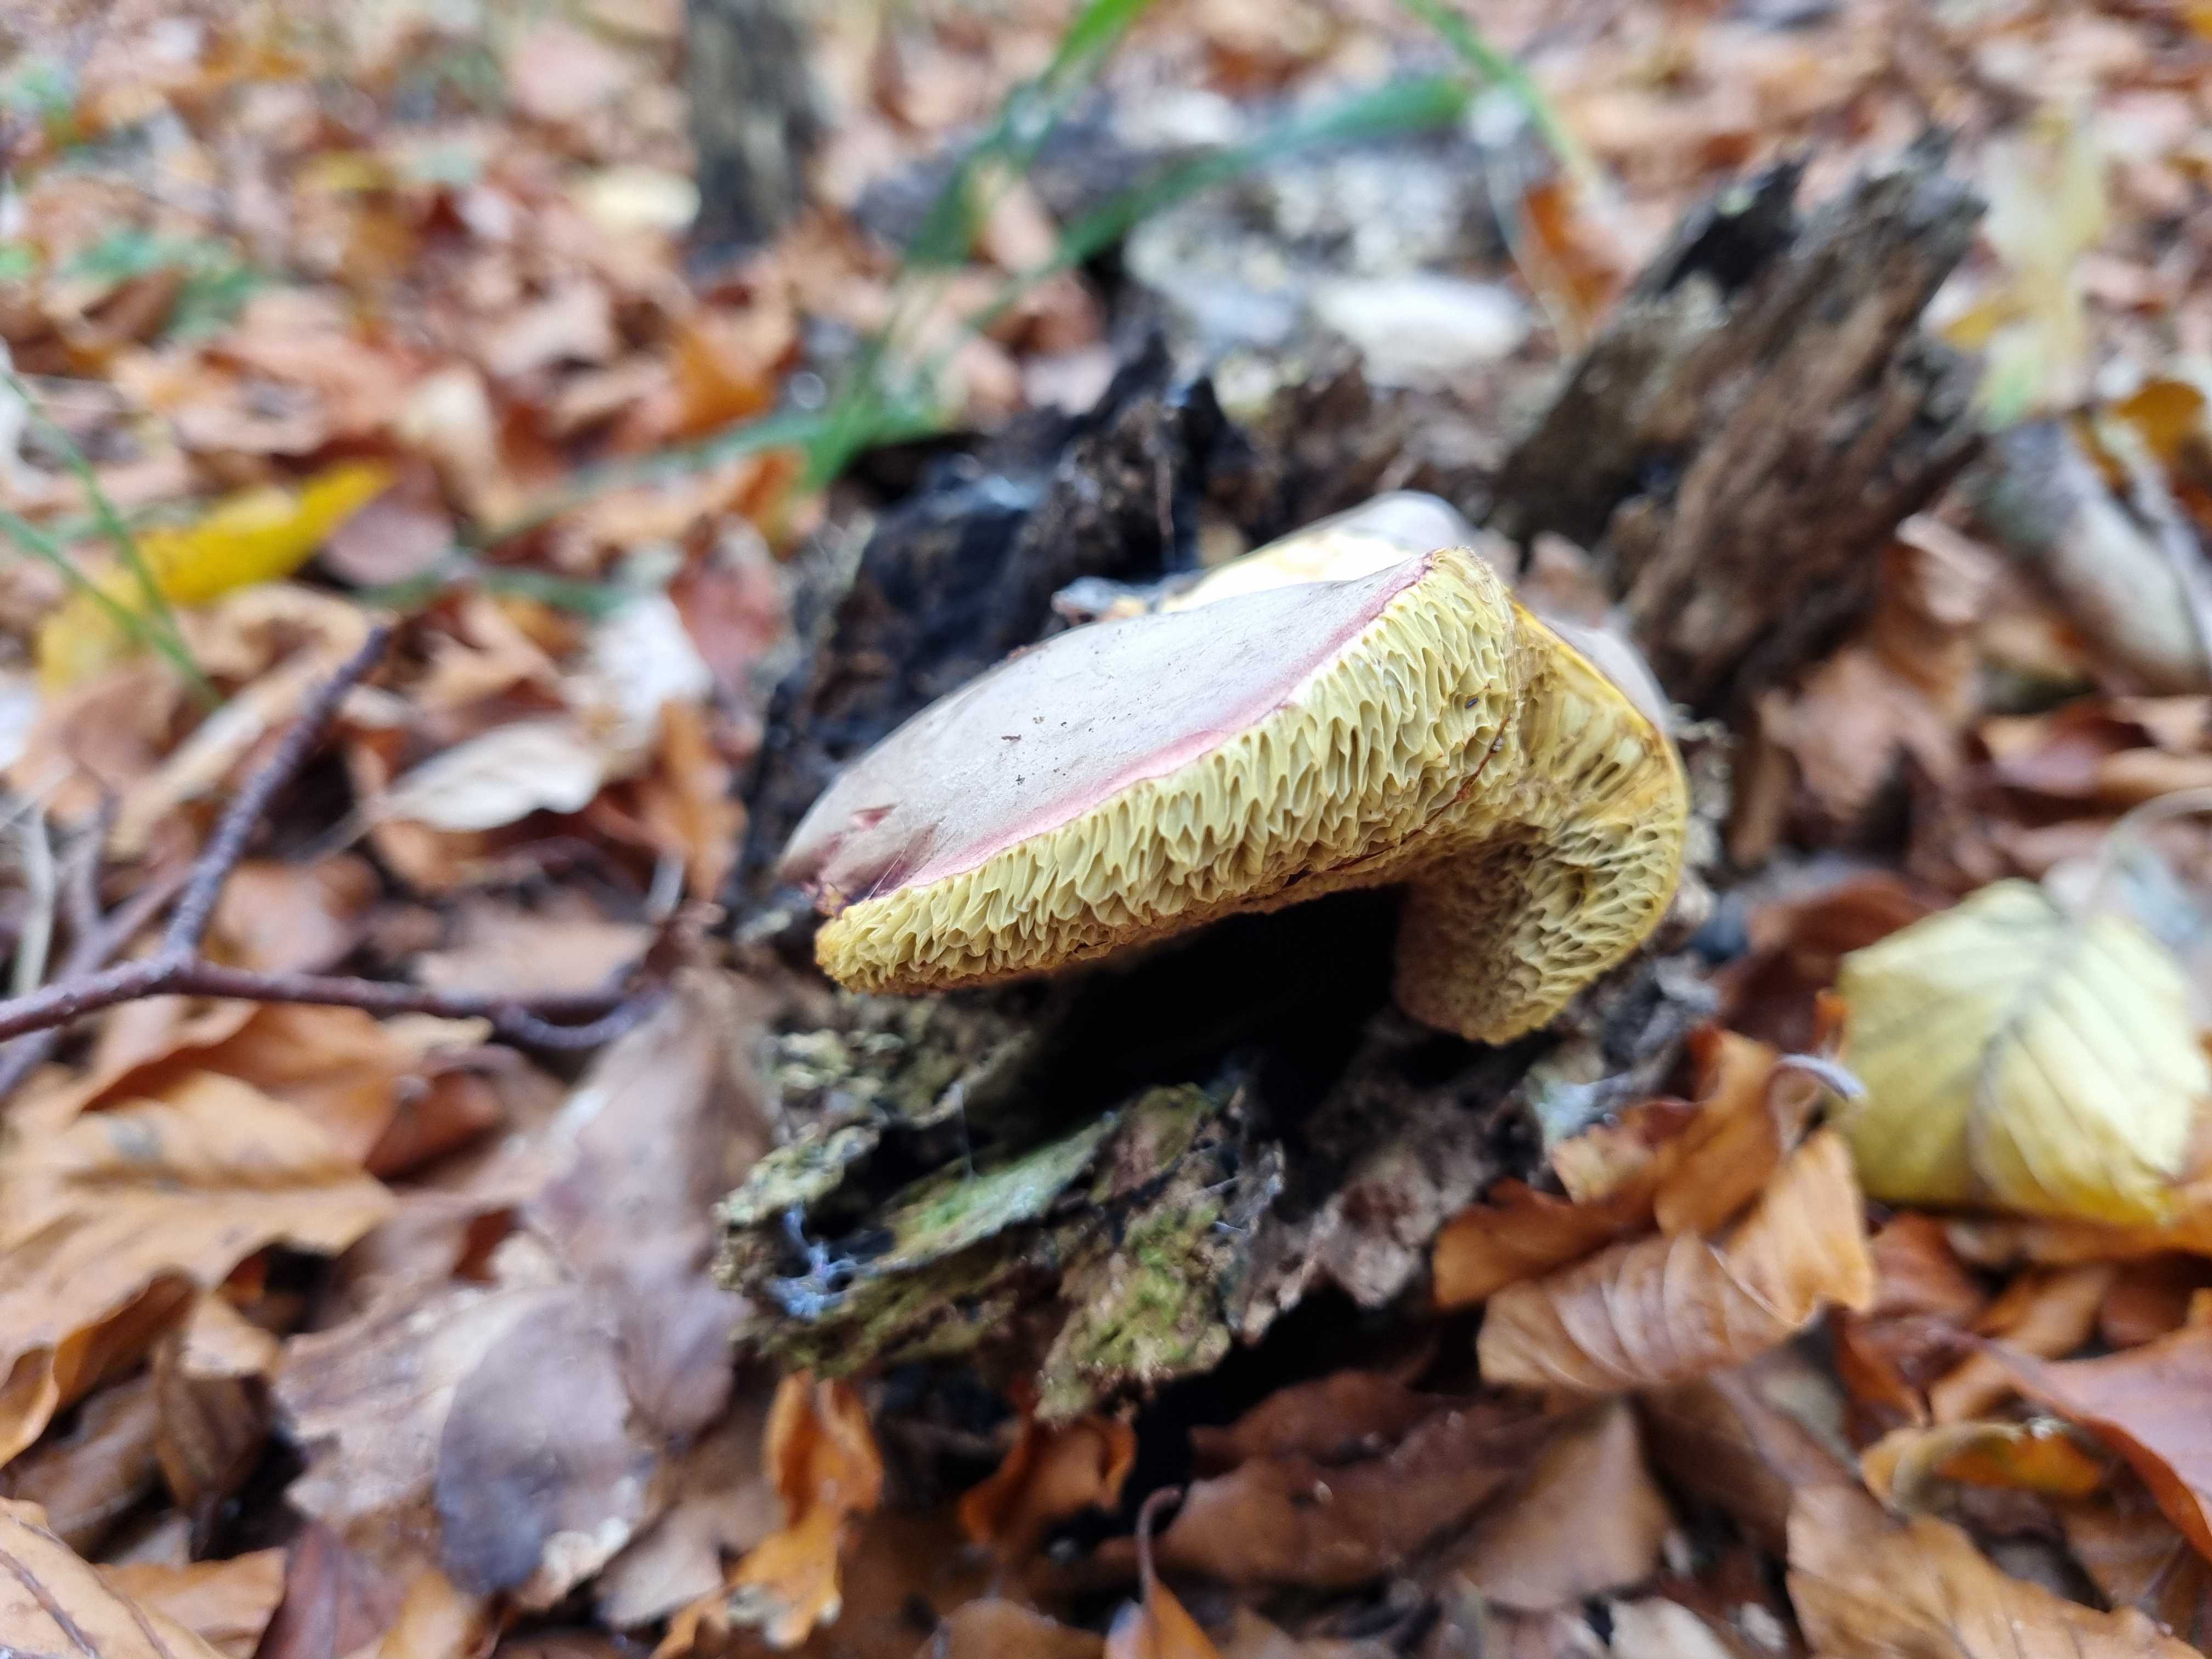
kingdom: Fungi
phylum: Basidiomycota
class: Agaricomycetes
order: Boletales
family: Boletaceae
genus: Xerocomellus
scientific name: Xerocomellus pruinatus
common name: dugget rørhat
